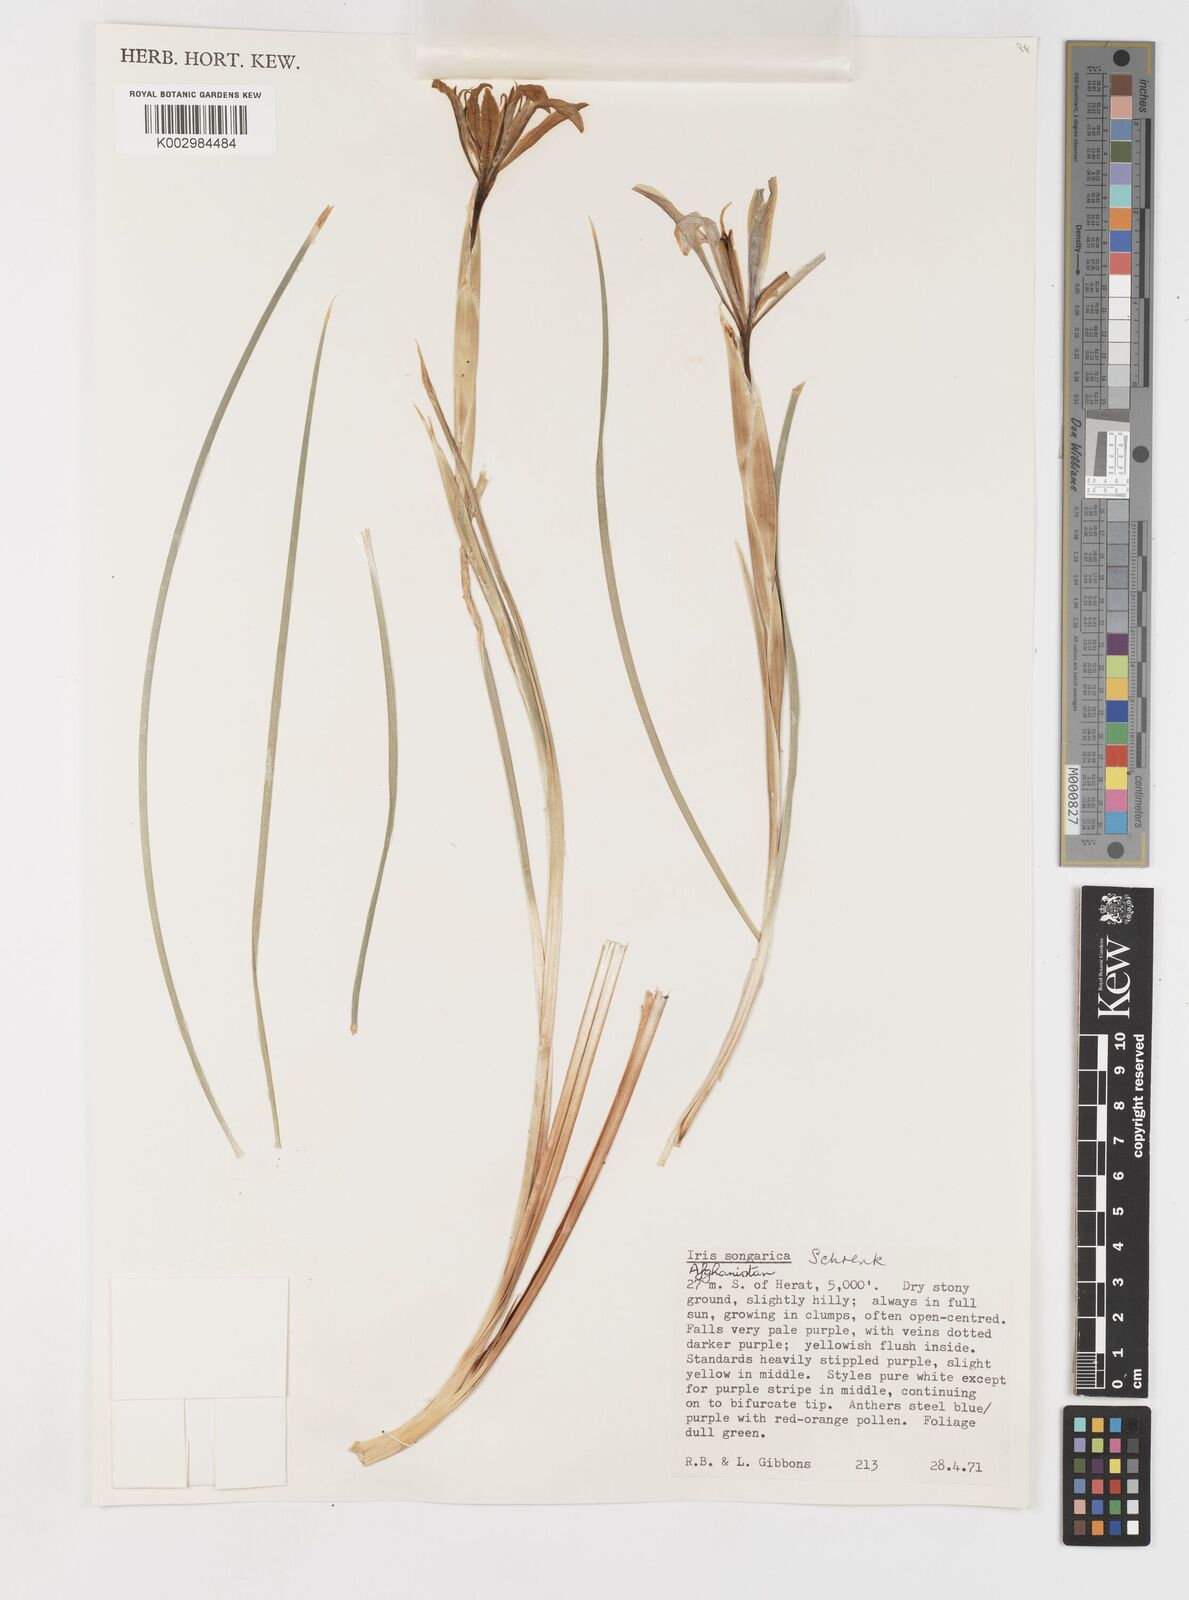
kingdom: Plantae
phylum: Tracheophyta
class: Liliopsida
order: Asparagales
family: Iridaceae
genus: Iris
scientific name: Iris songarica
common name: Songar iris
